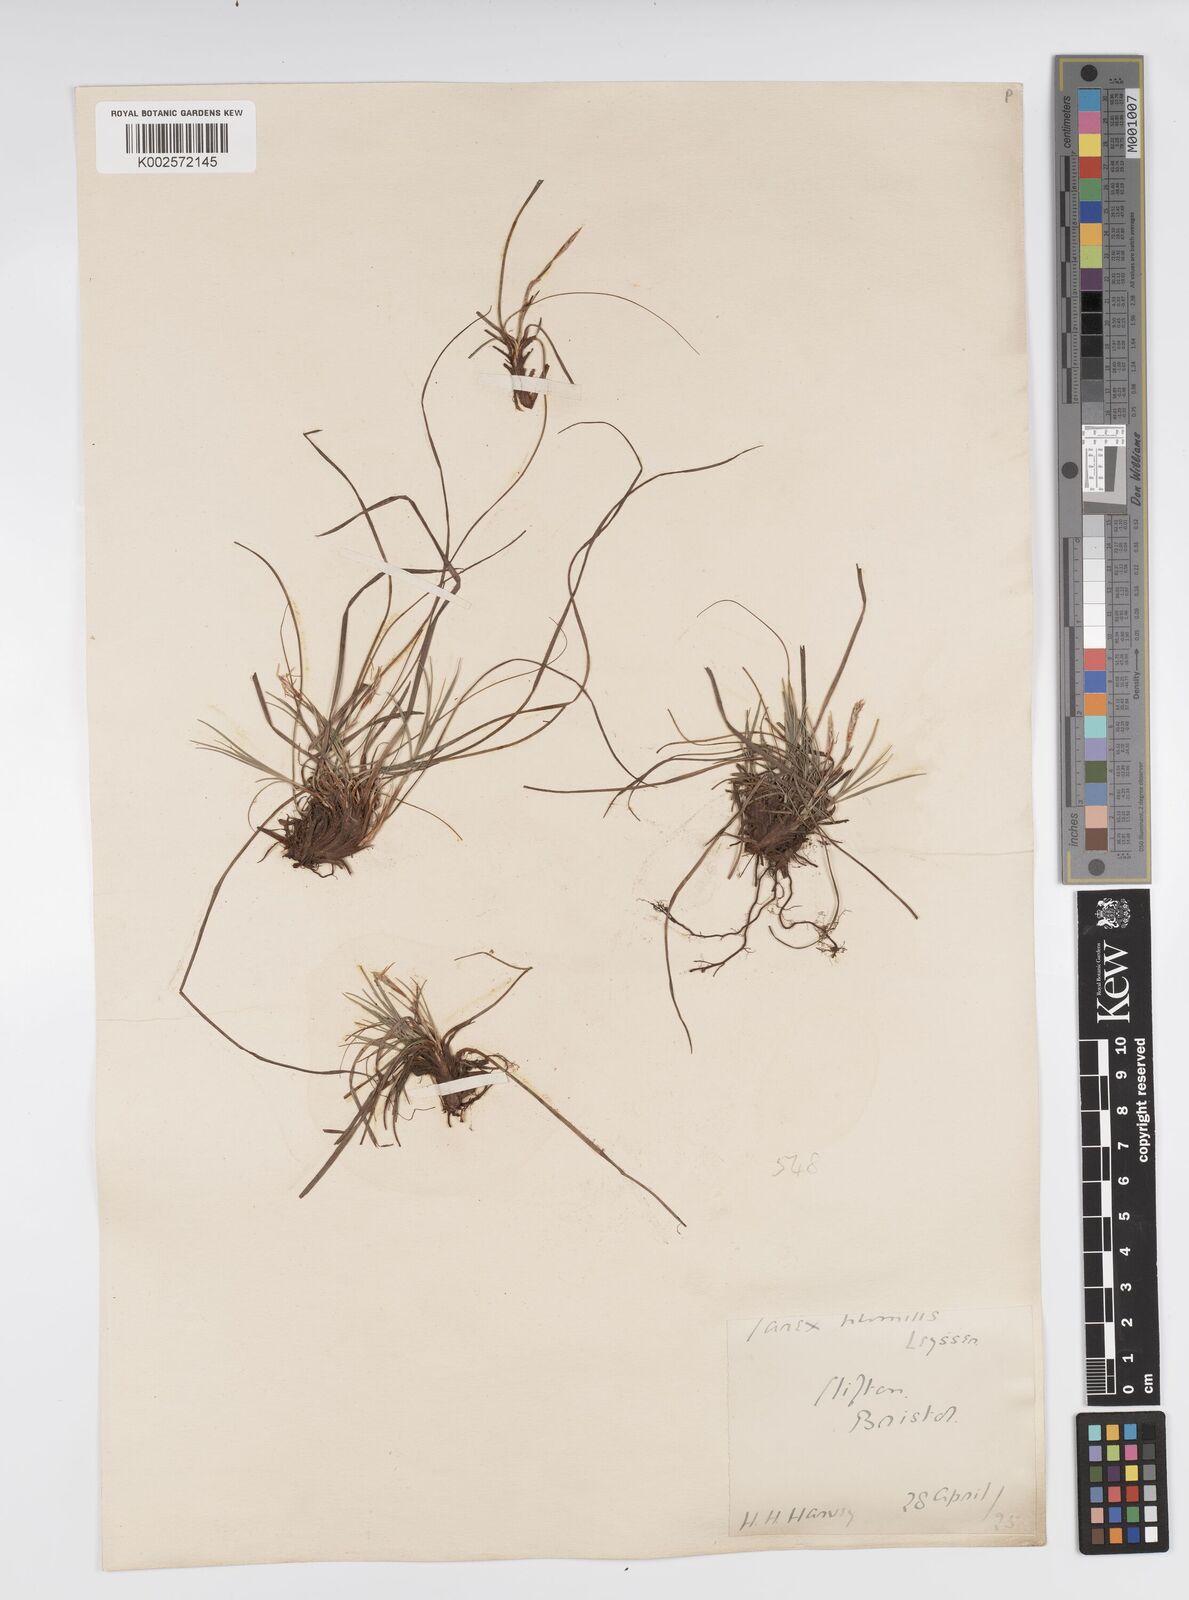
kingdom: Plantae
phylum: Tracheophyta
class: Liliopsida
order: Poales
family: Cyperaceae
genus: Carex
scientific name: Carex humilis
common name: Dwarf sedge
